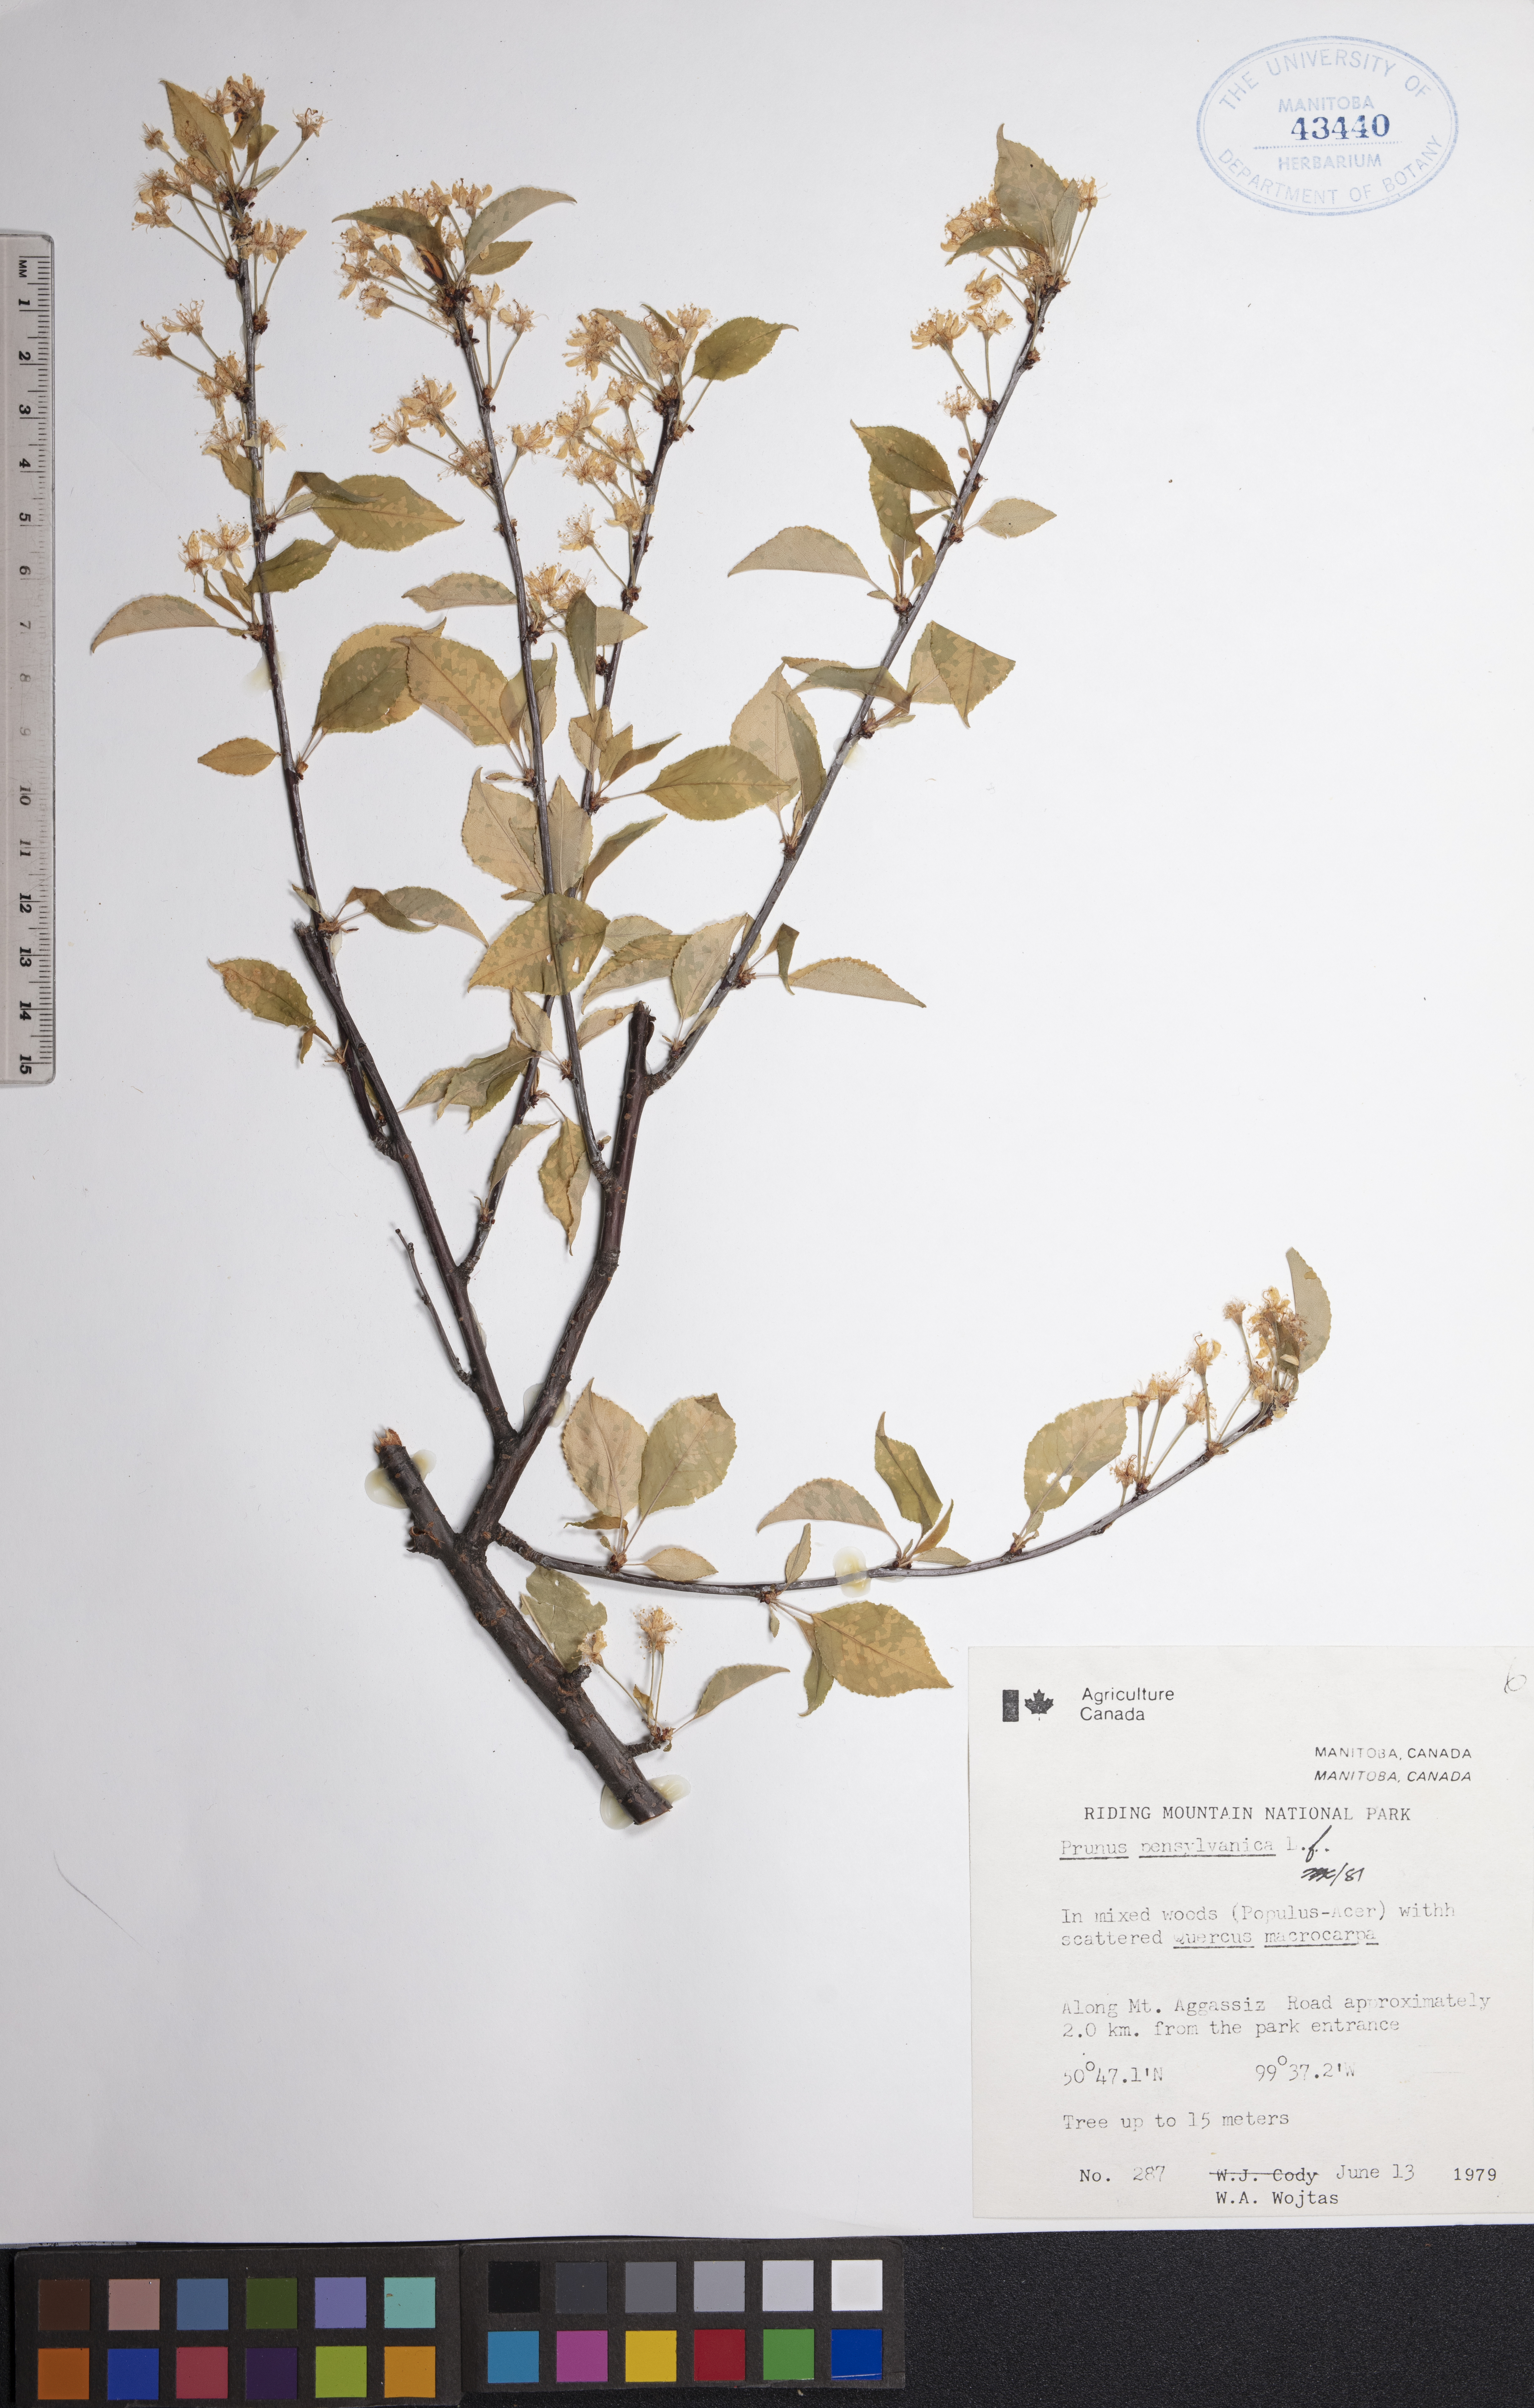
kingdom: Plantae
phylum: Tracheophyta
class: Magnoliopsida
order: Rosales
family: Rosaceae
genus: Prunus
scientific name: Prunus pensylvanica
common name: Pin cherry
